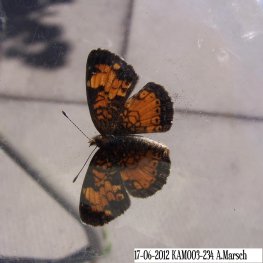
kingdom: Animalia
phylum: Arthropoda
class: Insecta
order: Lepidoptera
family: Nymphalidae
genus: Phyciodes
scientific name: Phyciodes tharos
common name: Northern Crescent
